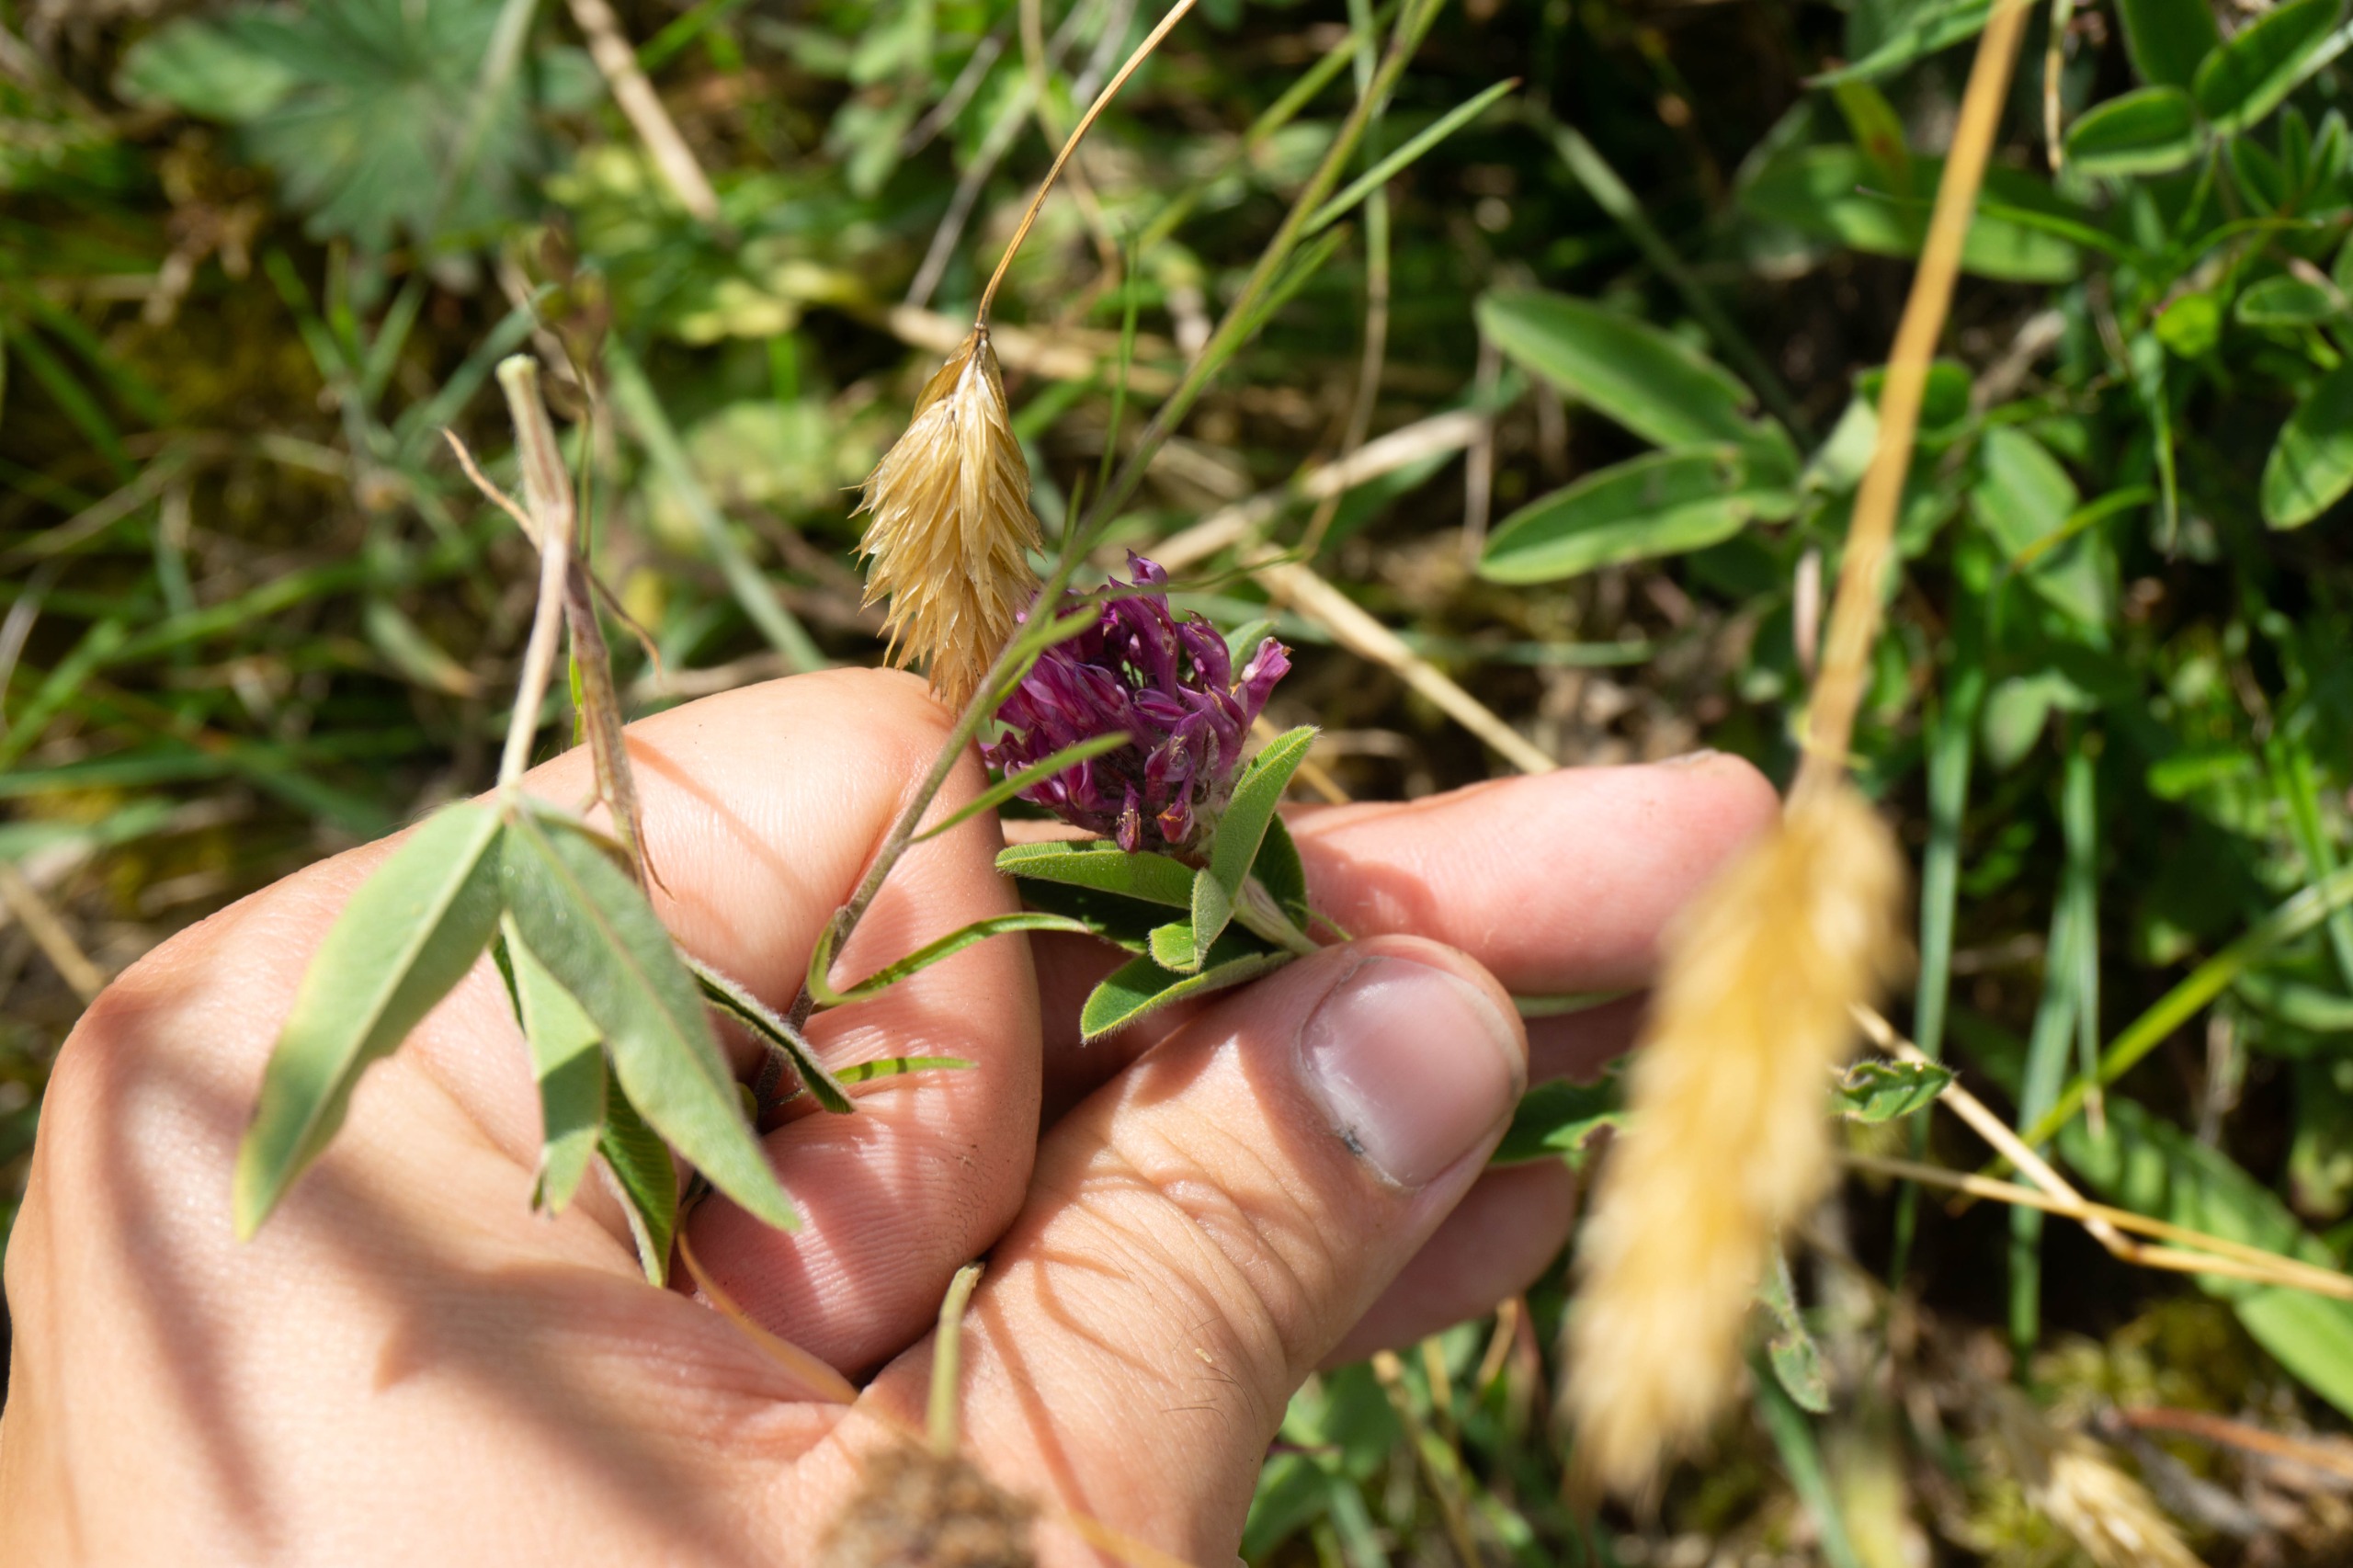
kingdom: Plantae
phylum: Tracheophyta
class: Magnoliopsida
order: Fabales
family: Fabaceae
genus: Trifolium
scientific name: Trifolium alpestre
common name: Skov-kløver
